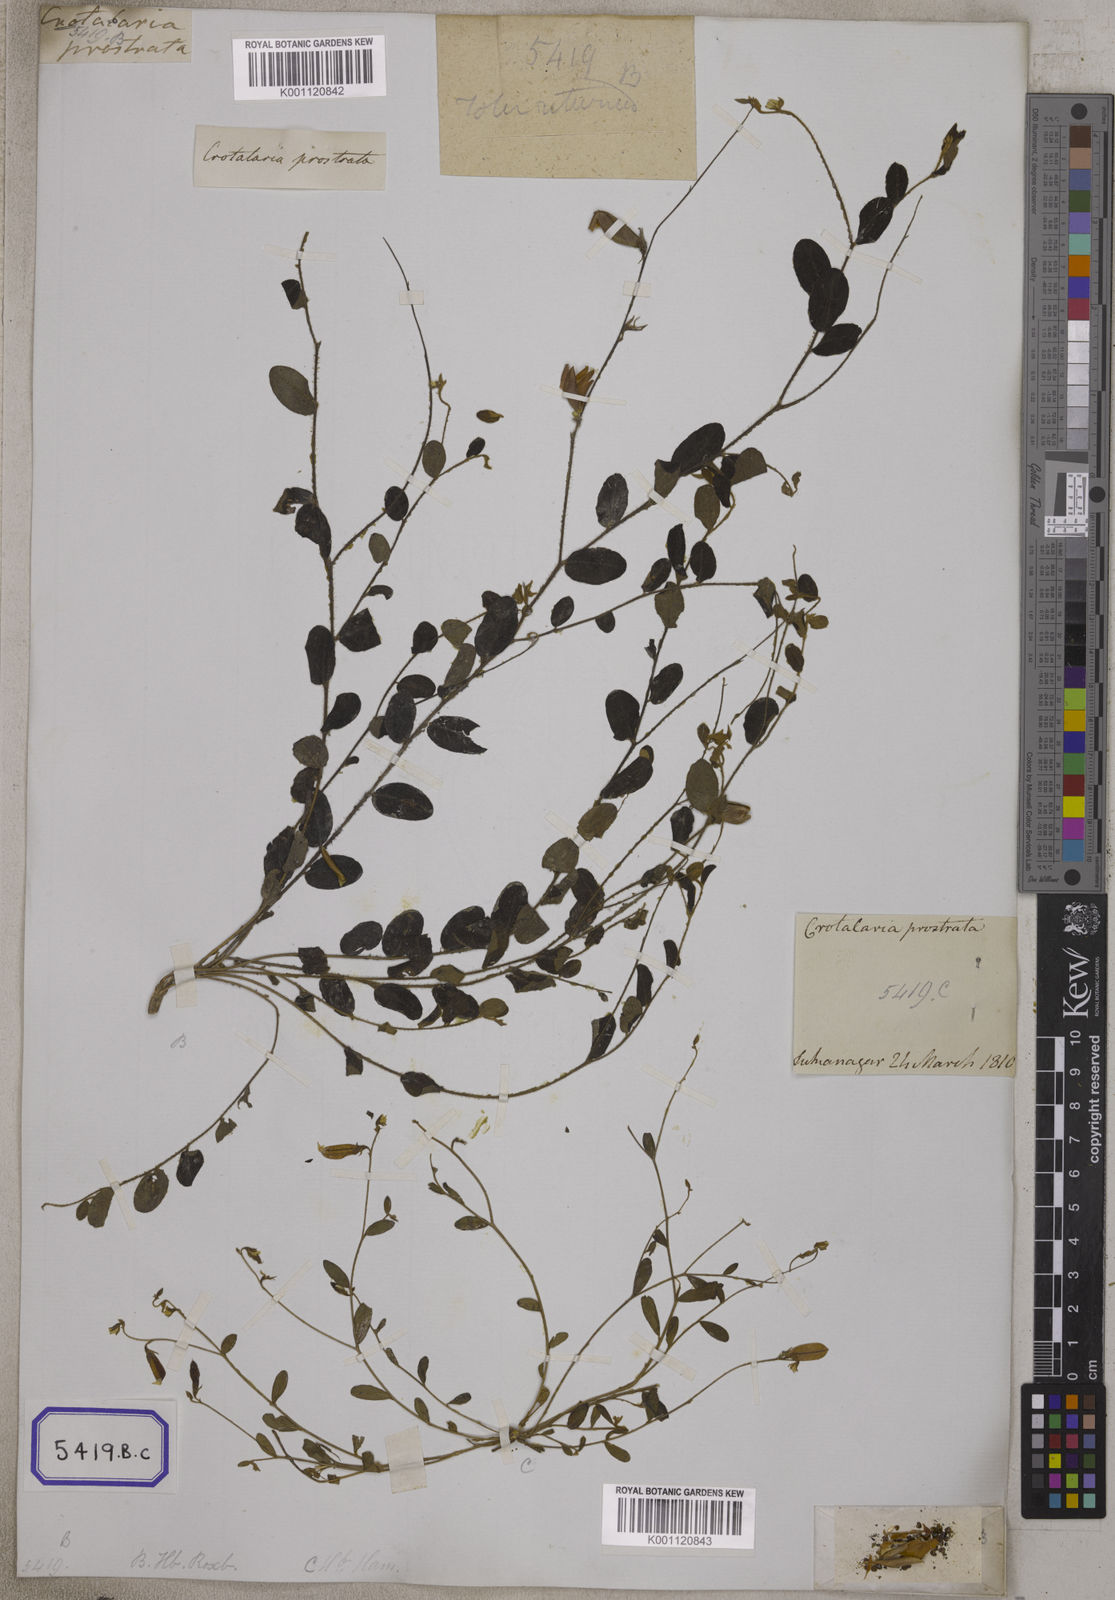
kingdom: Plantae
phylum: Tracheophyta
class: Magnoliopsida
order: Fabales
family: Fabaceae
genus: Crotalaria
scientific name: Crotalaria
